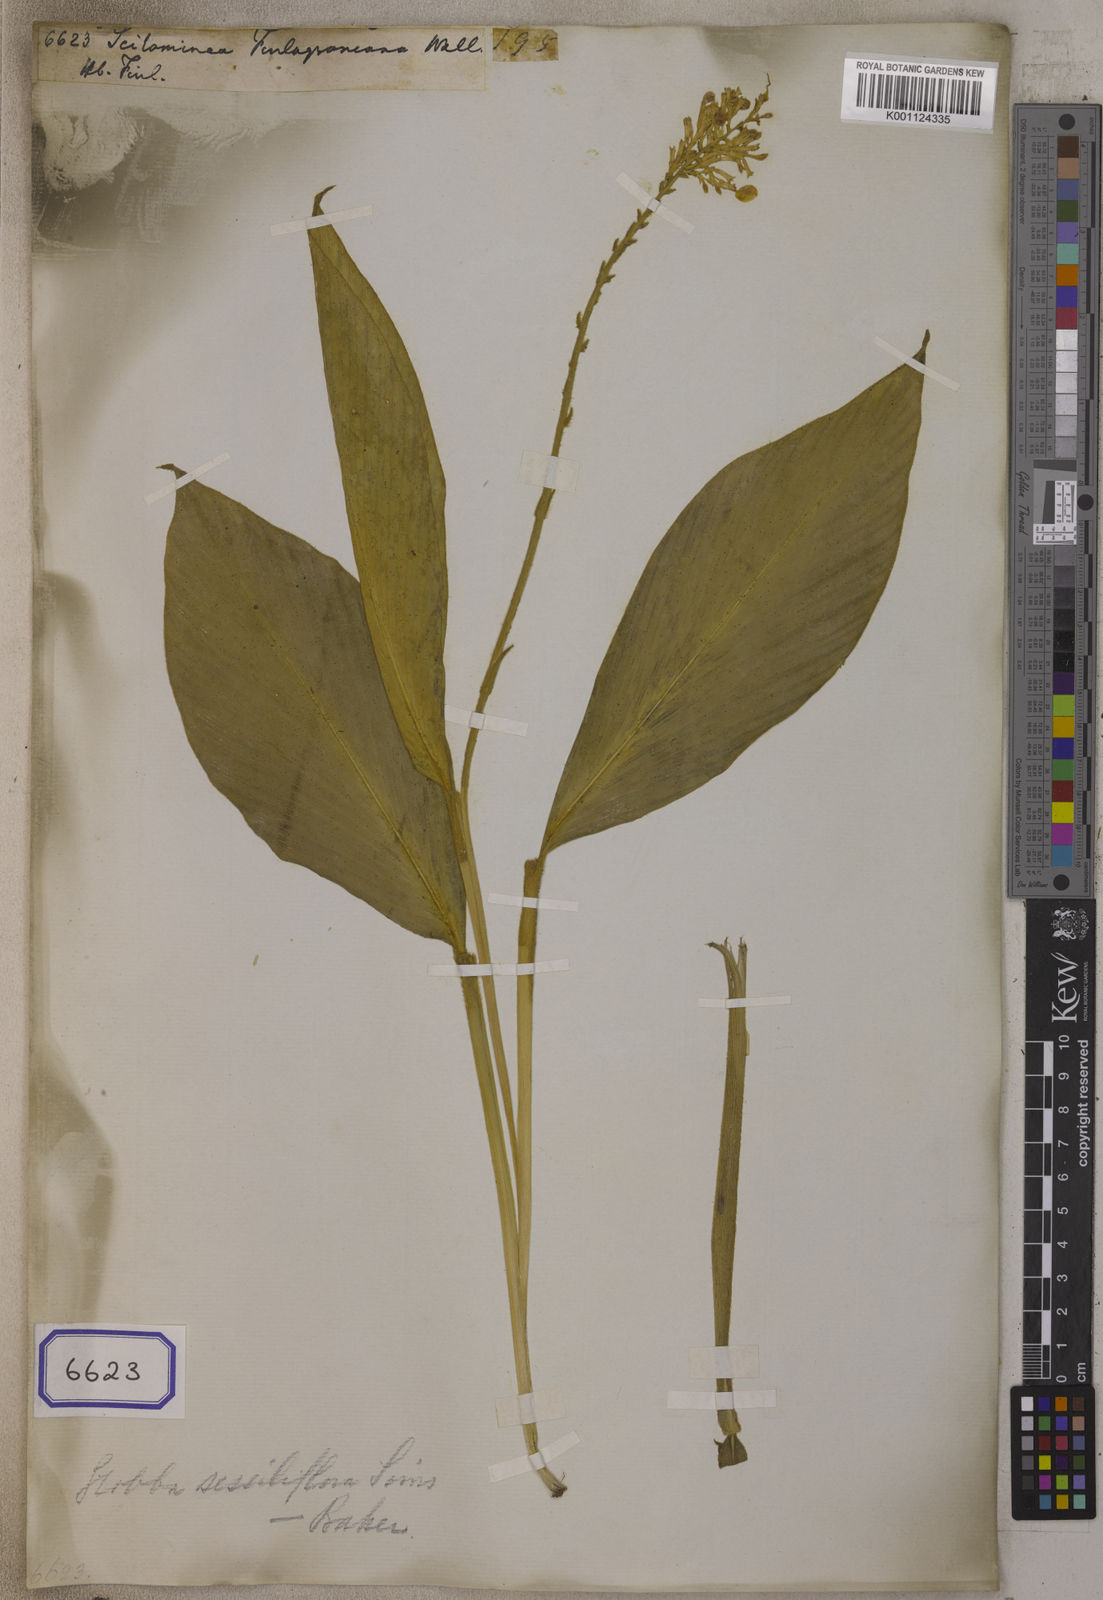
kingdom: Plantae
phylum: Tracheophyta
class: Liliopsida
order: Zingiberales
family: Zingiberaceae
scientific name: Zingiberaceae
